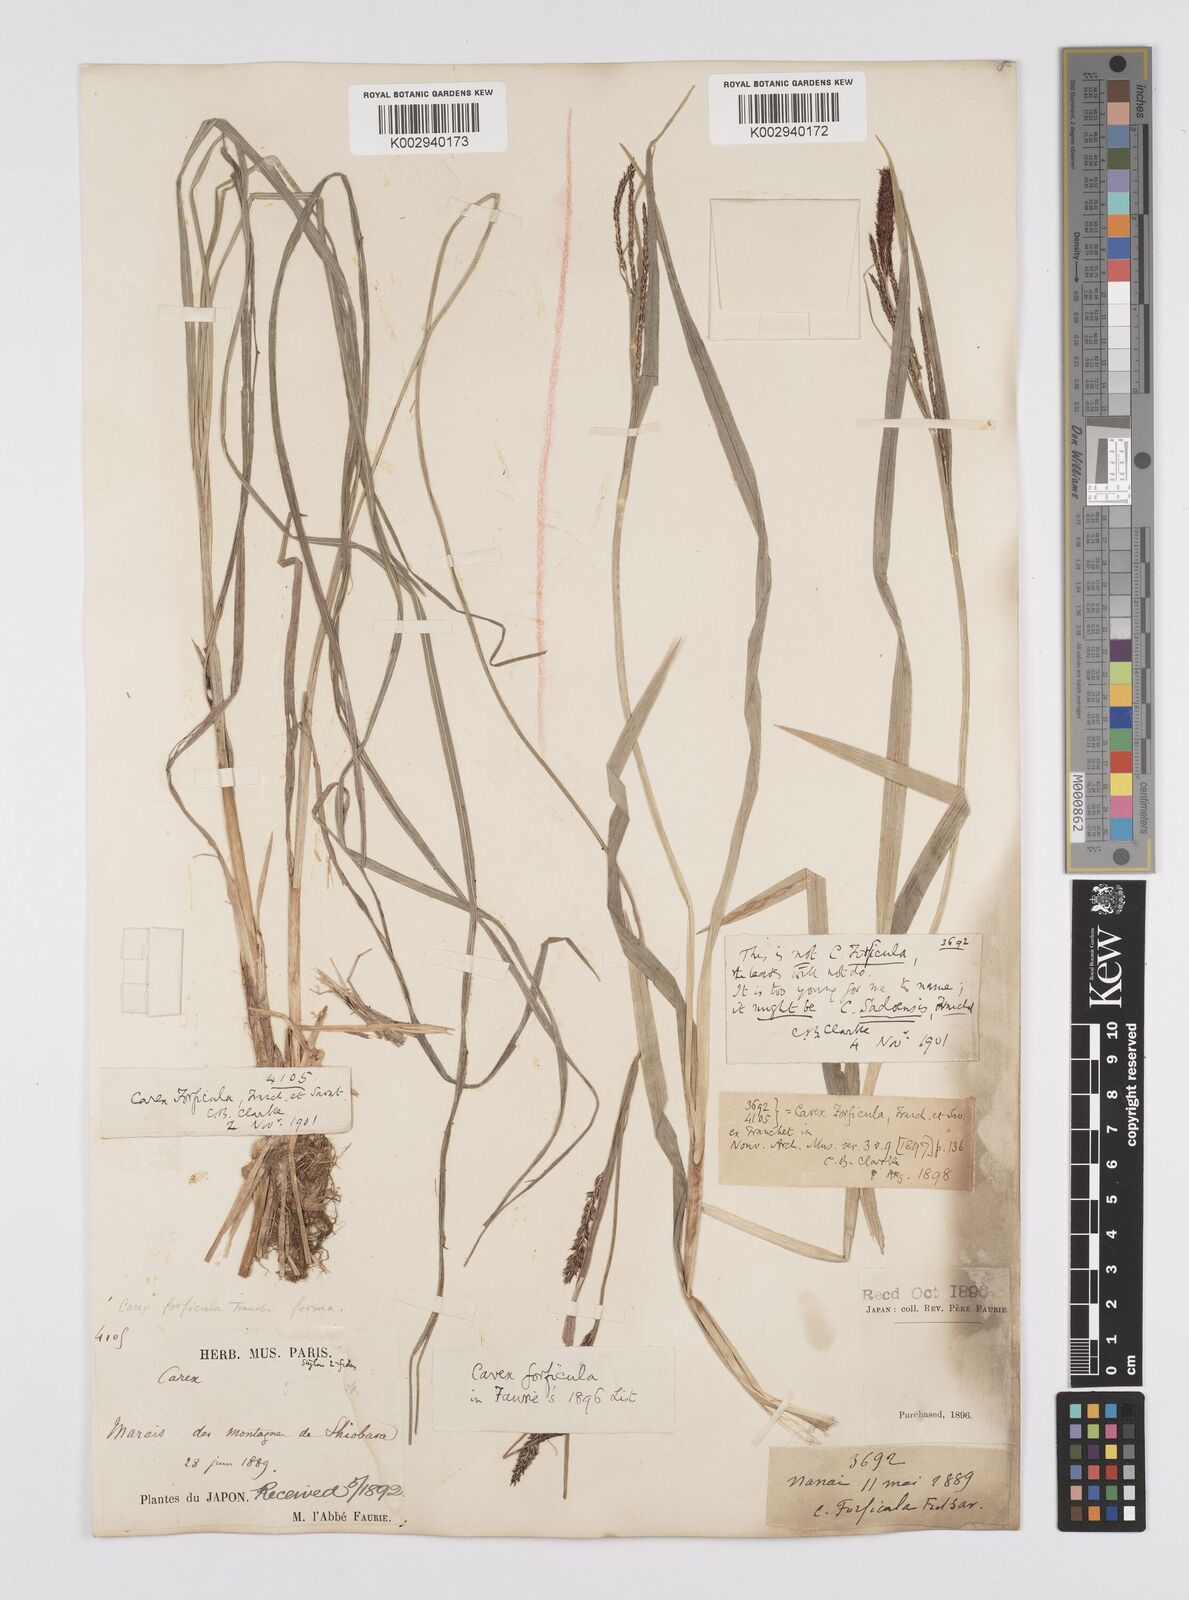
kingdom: Plantae
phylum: Tracheophyta
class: Liliopsida
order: Poales
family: Cyperaceae
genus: Carex
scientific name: Carex forficula
